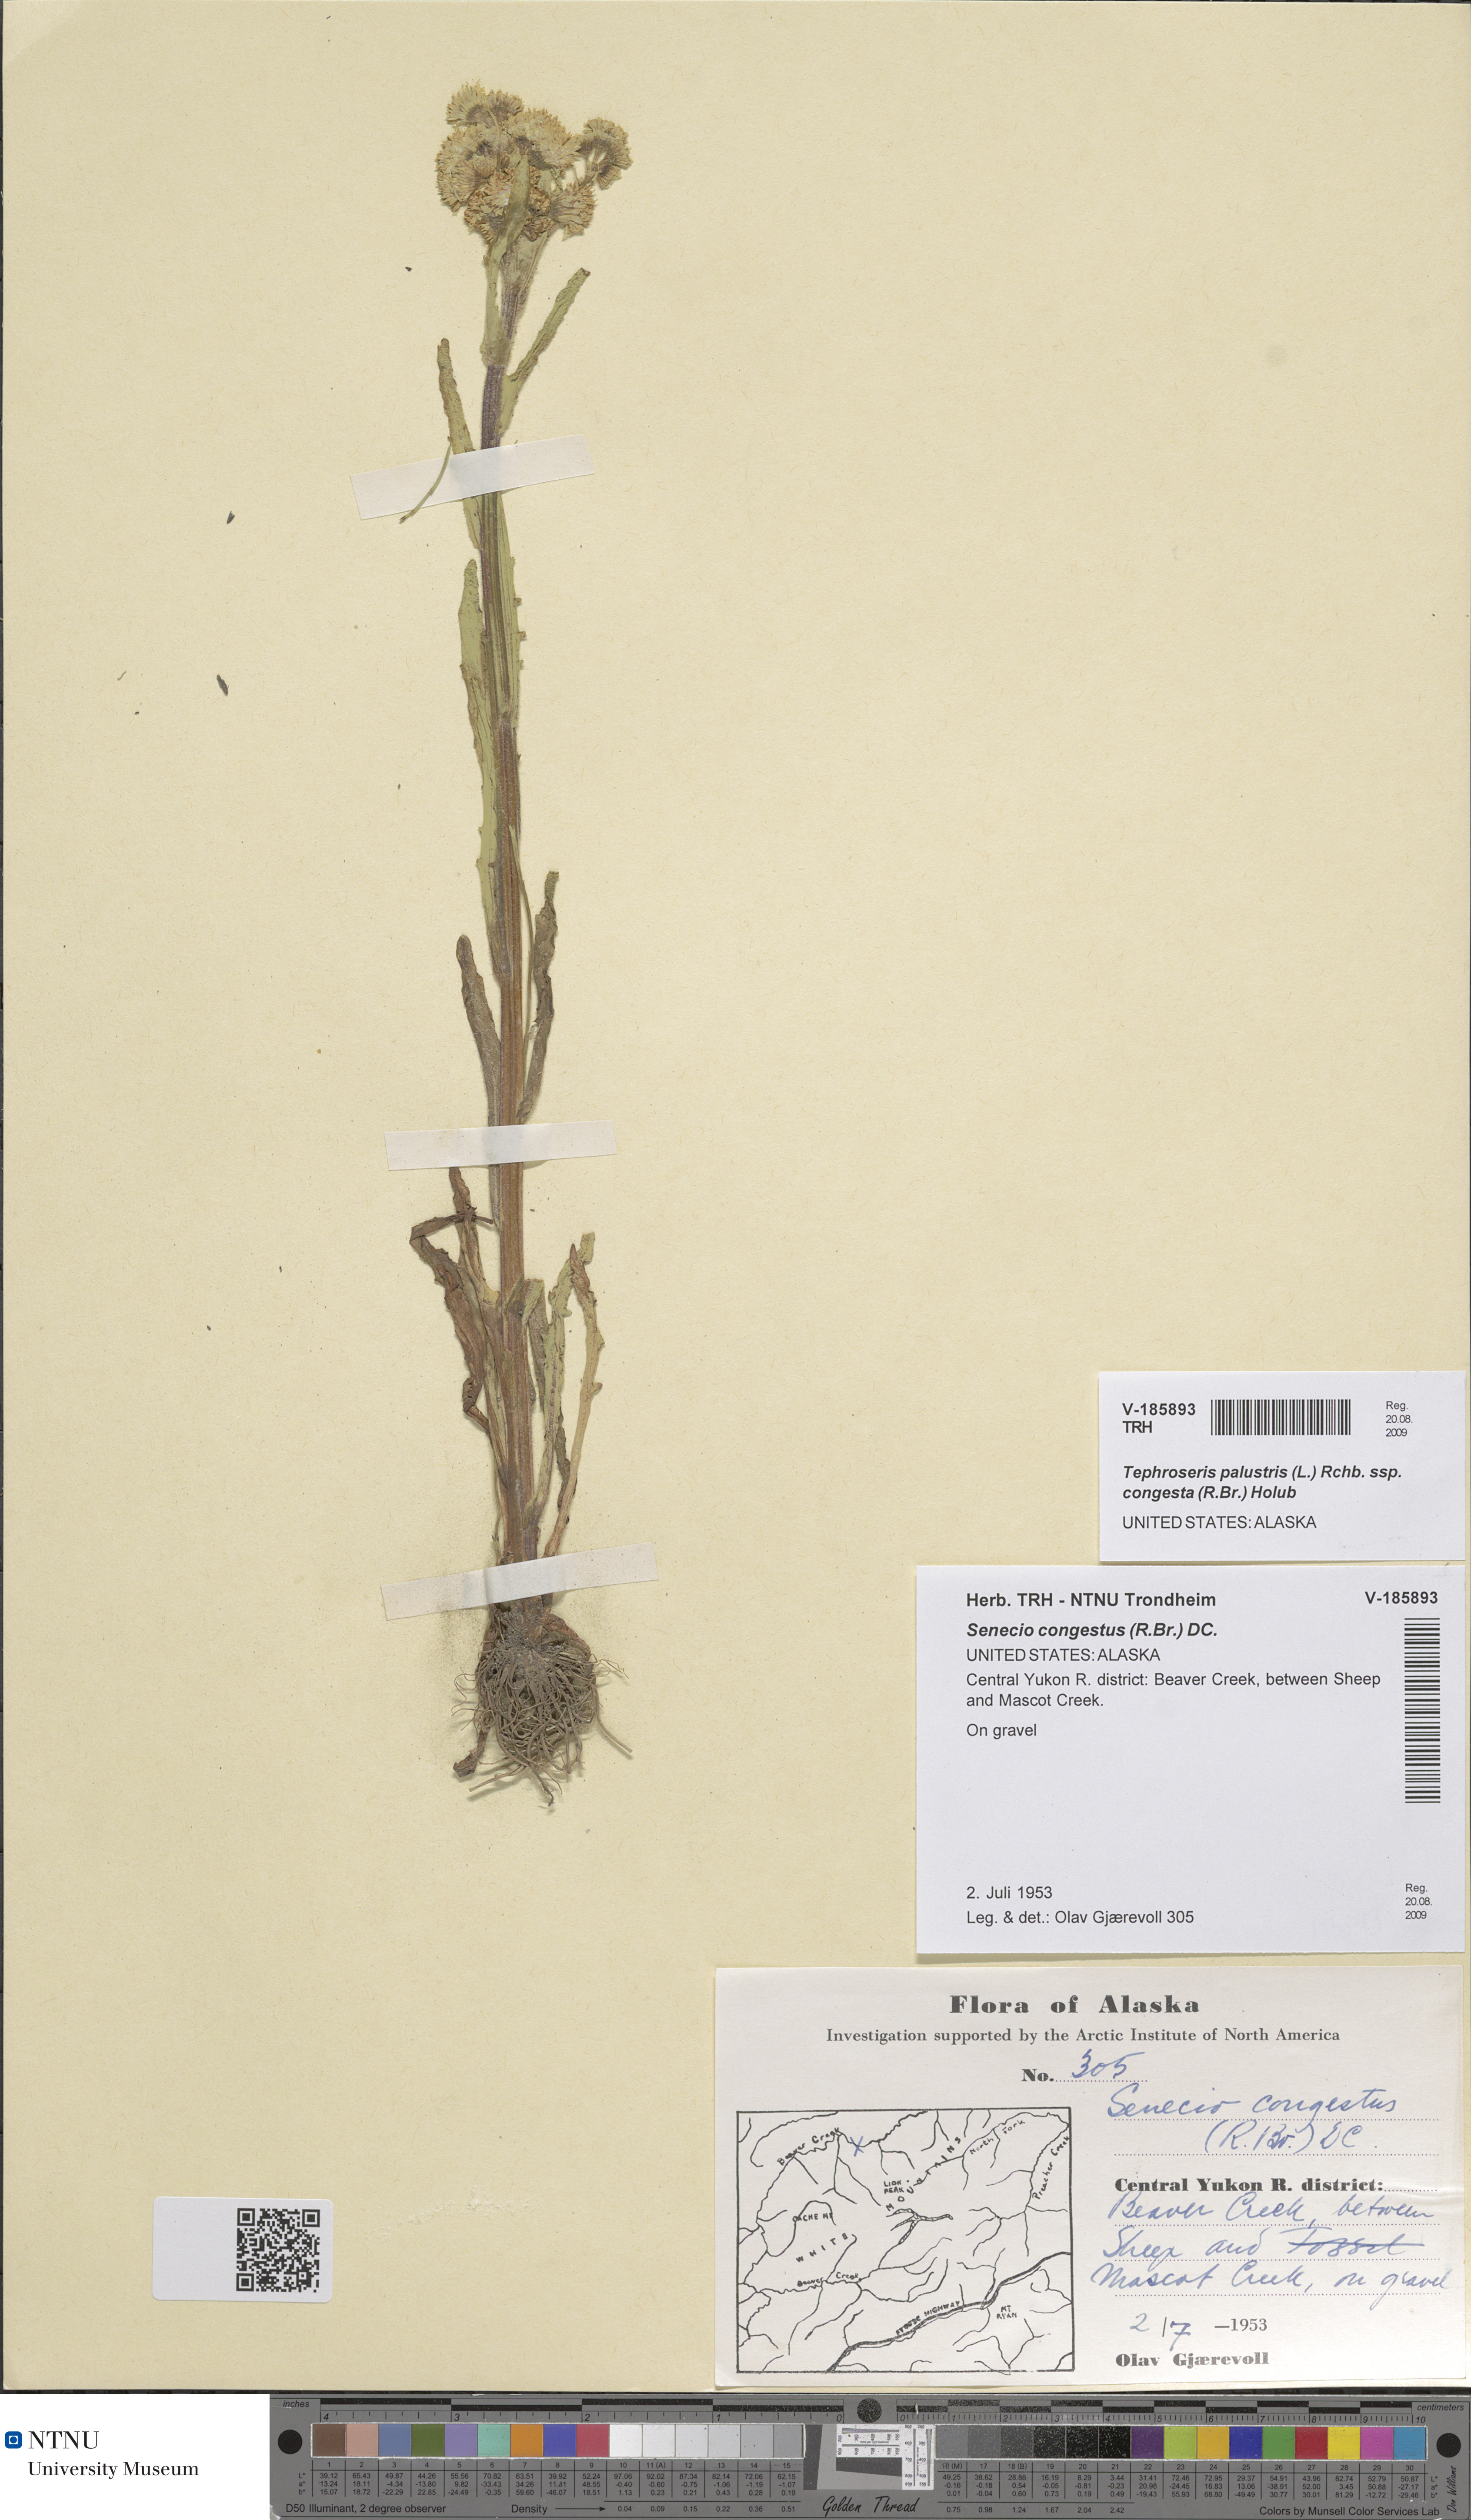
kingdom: Plantae
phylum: Tracheophyta
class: Magnoliopsida
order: Asterales
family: Asteraceae
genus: Tephroseris
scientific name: Tephroseris palustris
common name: Marsh fleawort
